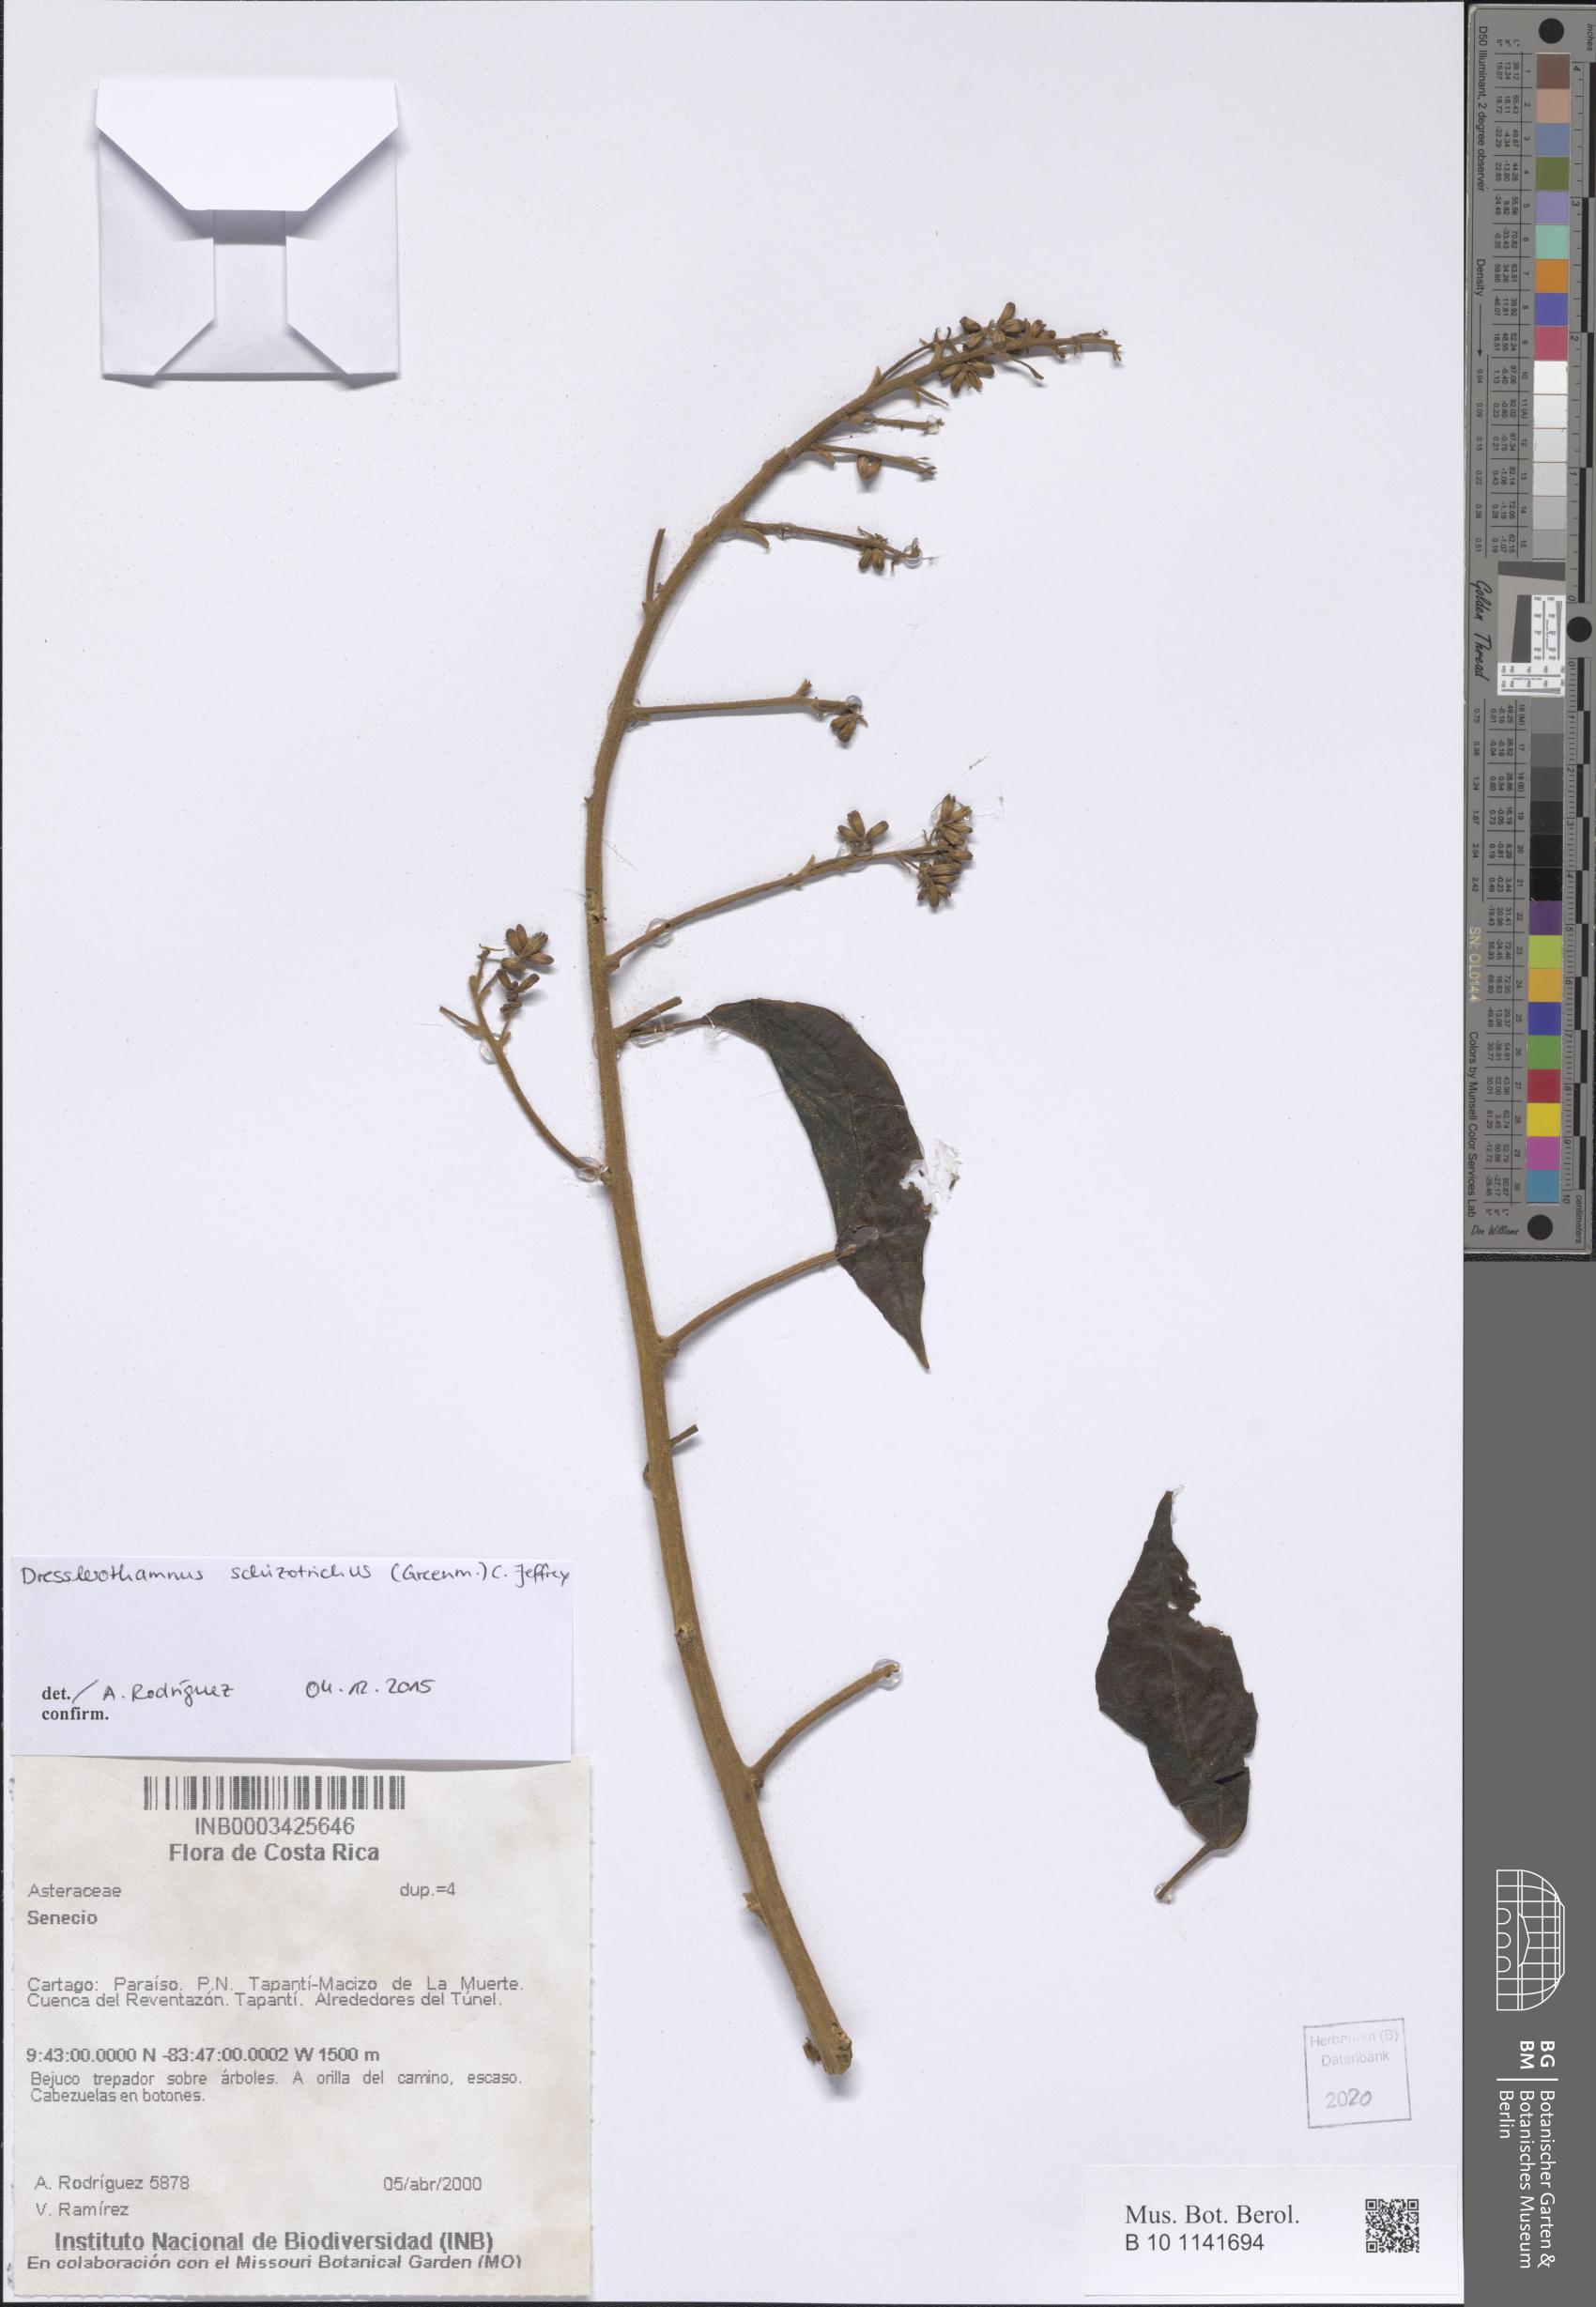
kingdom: Plantae
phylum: Tracheophyta
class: Magnoliopsida
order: Asterales
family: Asteraceae
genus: Dresslerothamnus
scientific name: Dresslerothamnus schizotrichus
